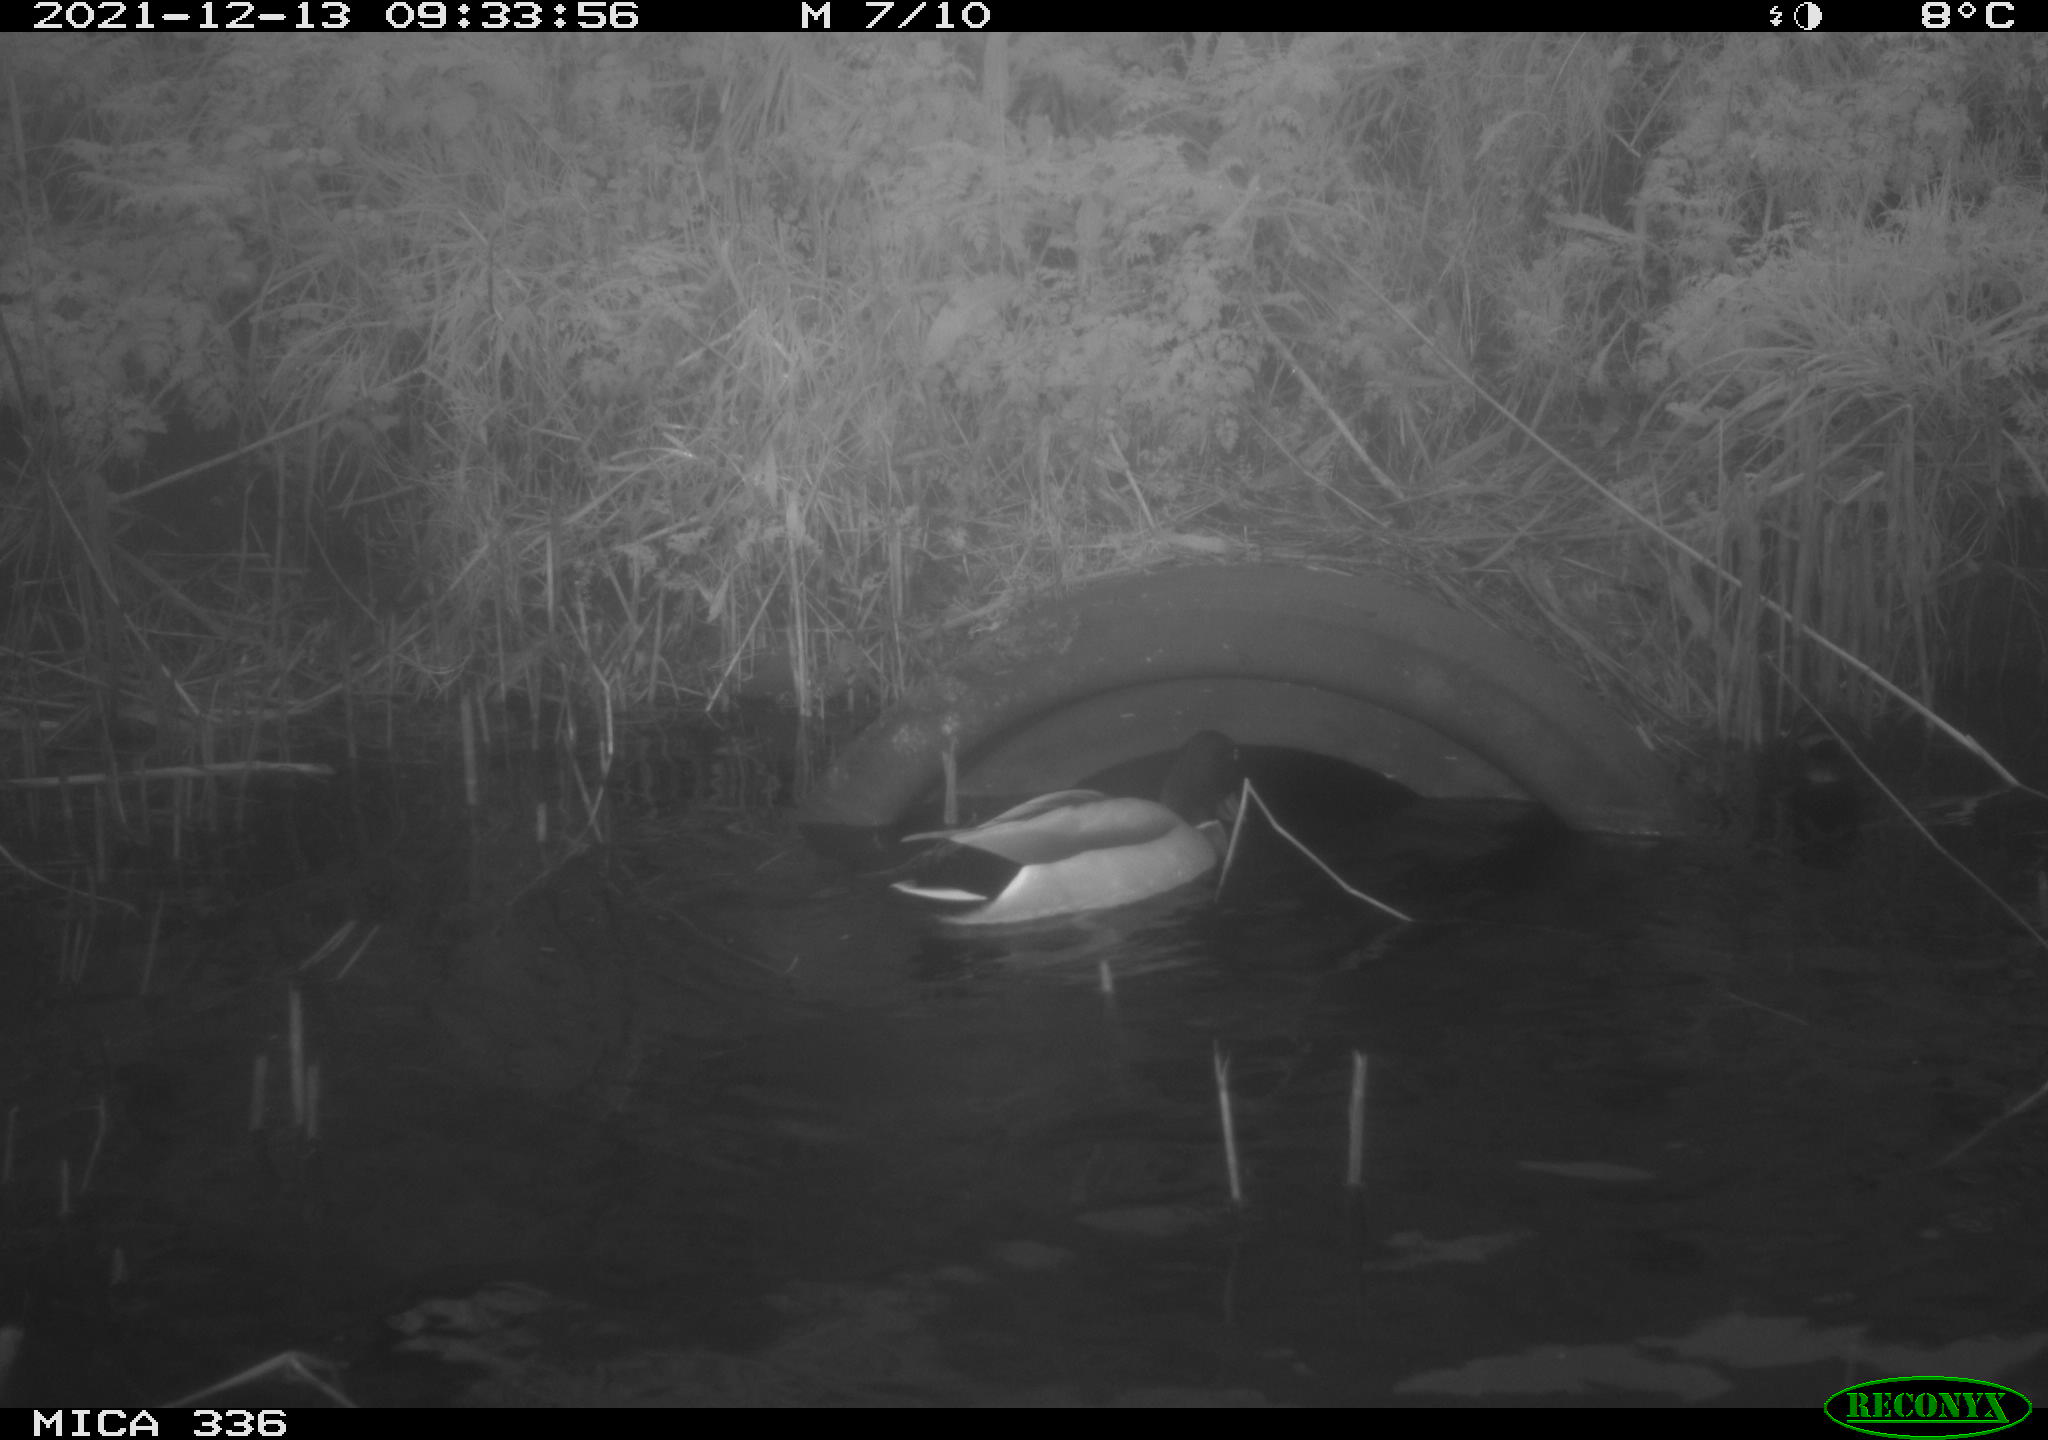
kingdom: Animalia
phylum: Chordata
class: Aves
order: Gruiformes
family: Rallidae
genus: Gallinula
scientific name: Gallinula chloropus
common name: Common moorhen
